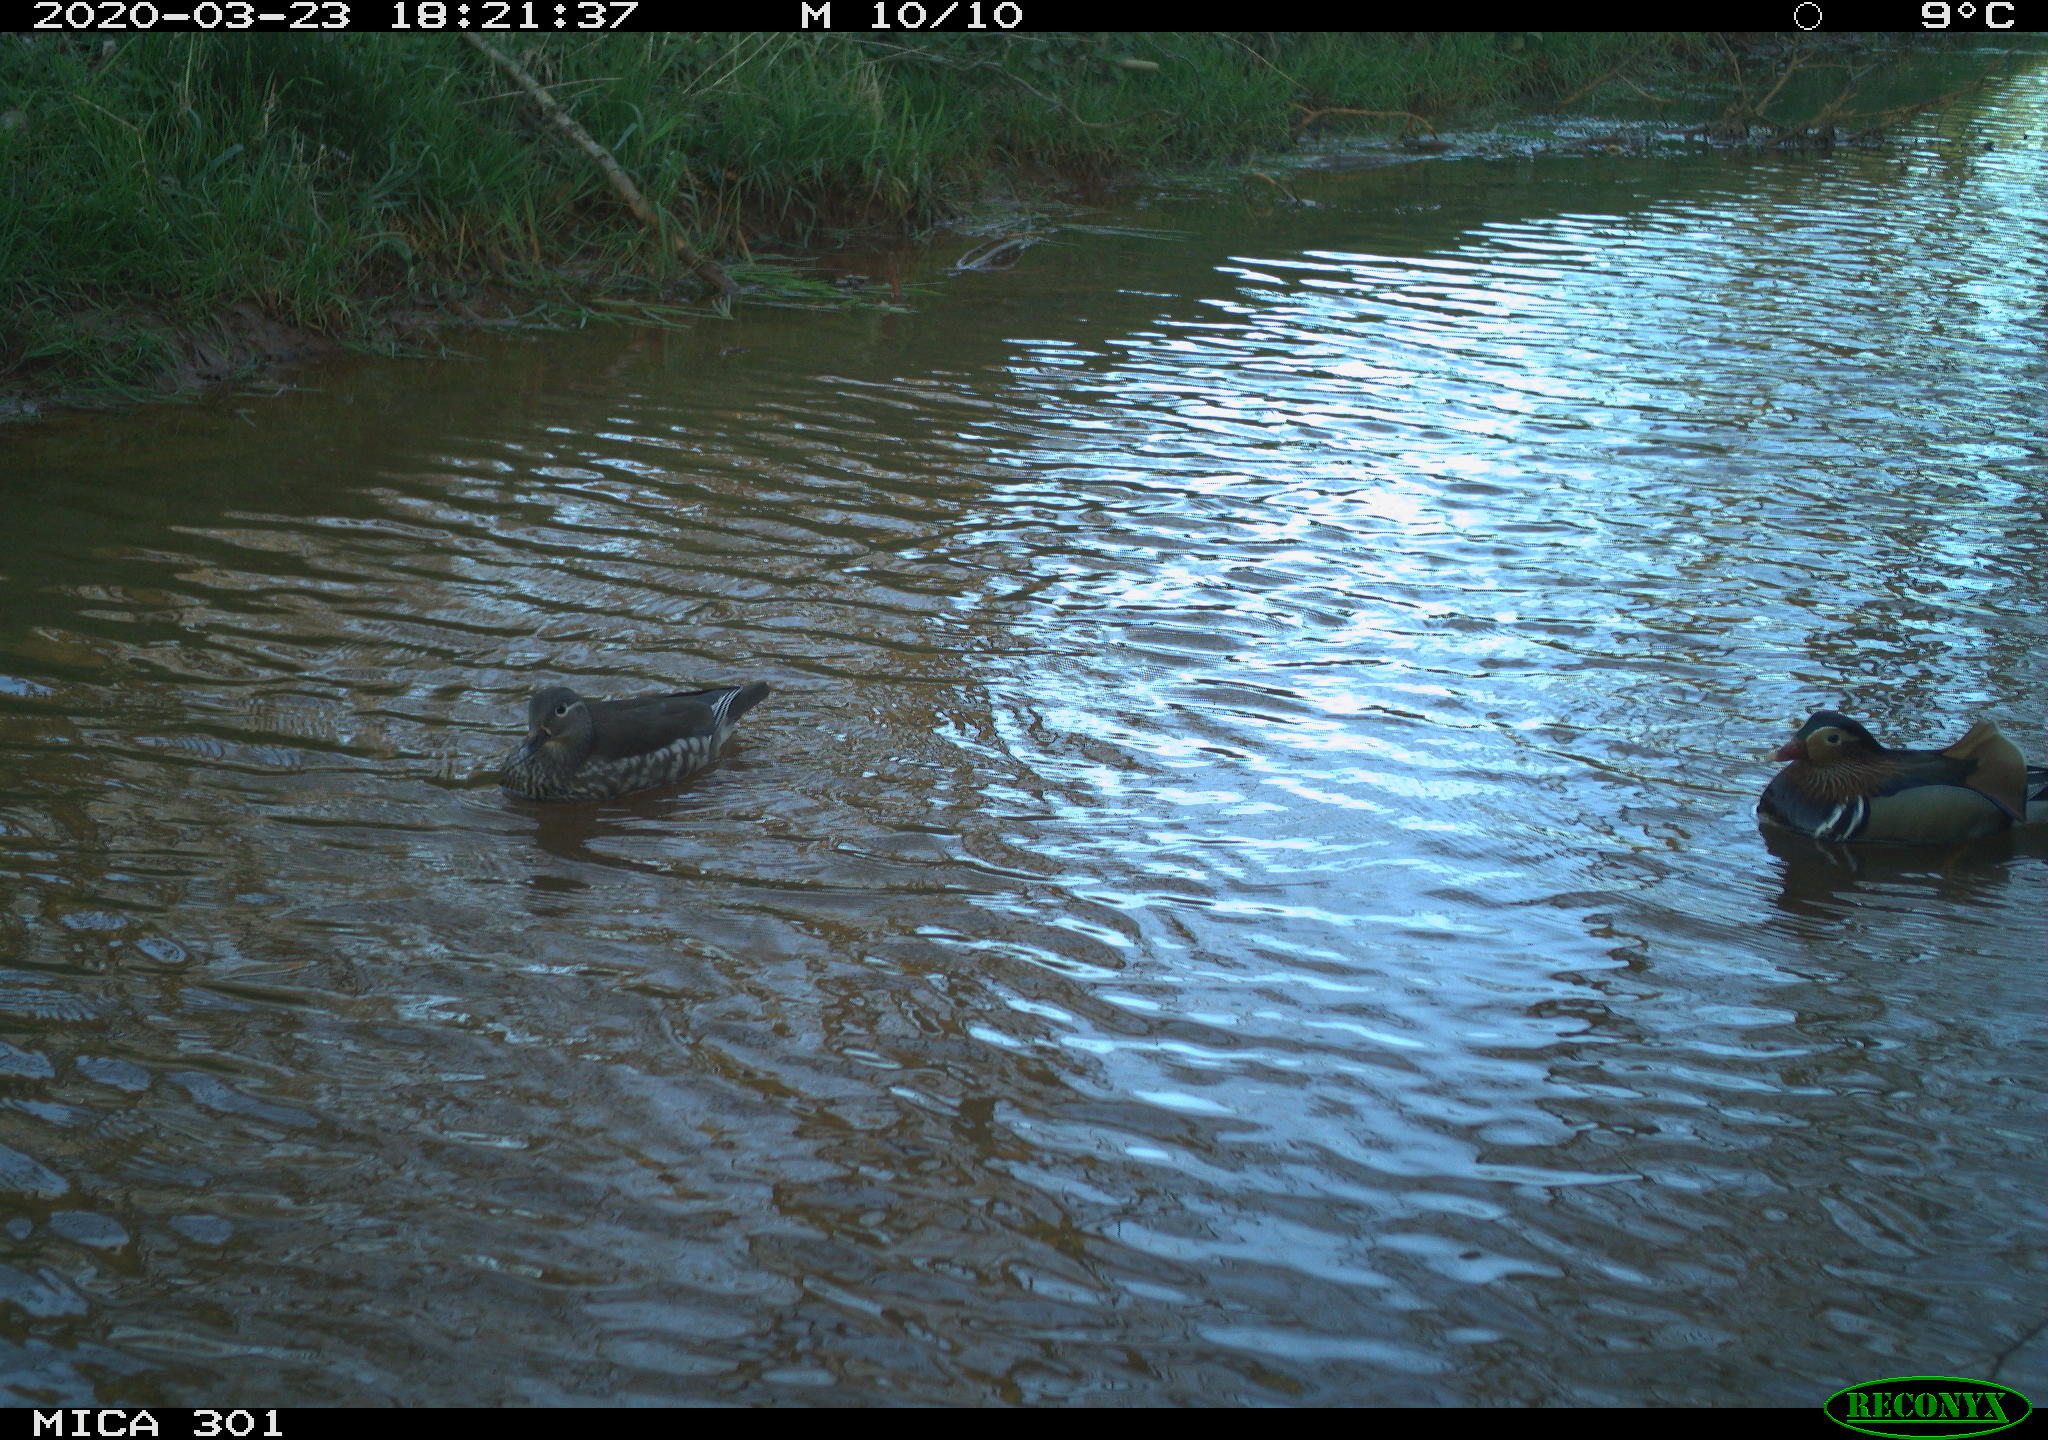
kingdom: Animalia
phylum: Chordata
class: Aves
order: Anseriformes
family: Anatidae
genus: Aix
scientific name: Aix galericulata
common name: Mandarin duck
